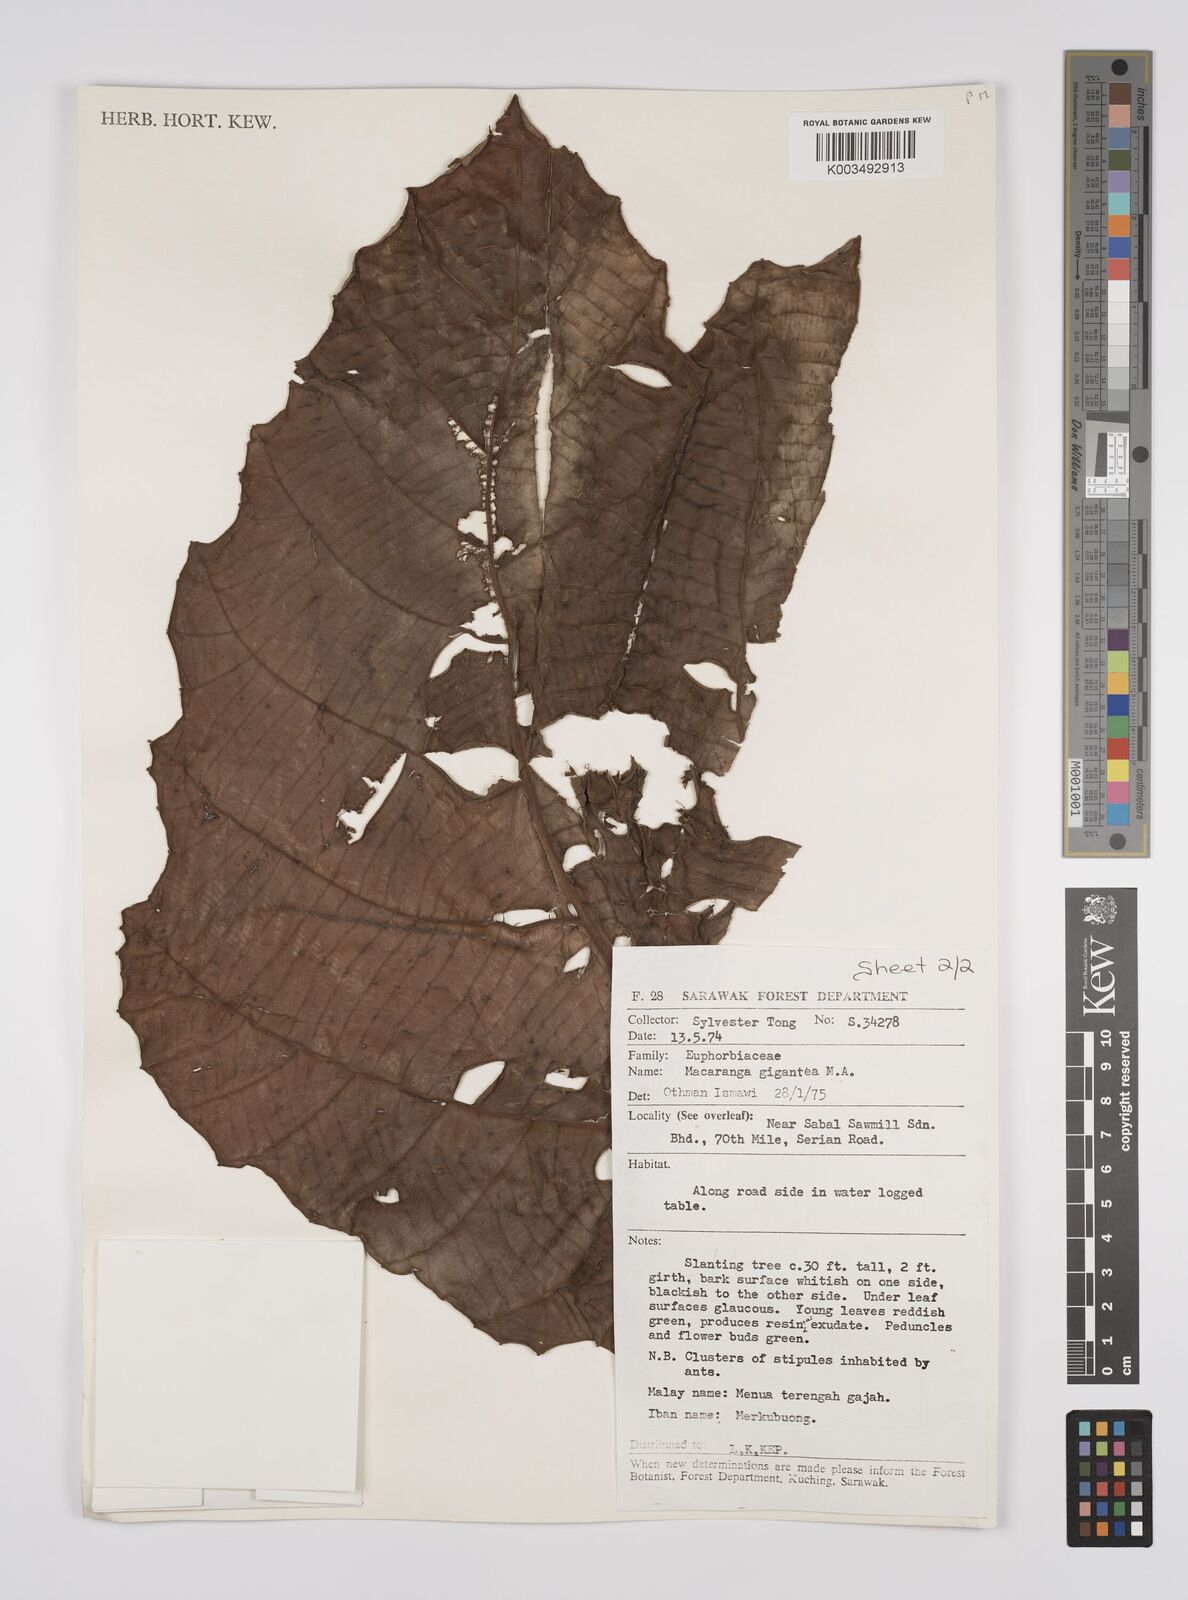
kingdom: Plantae
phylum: Tracheophyta
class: Magnoliopsida
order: Malpighiales
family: Euphorbiaceae
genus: Macaranga
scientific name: Macaranga gigantea
